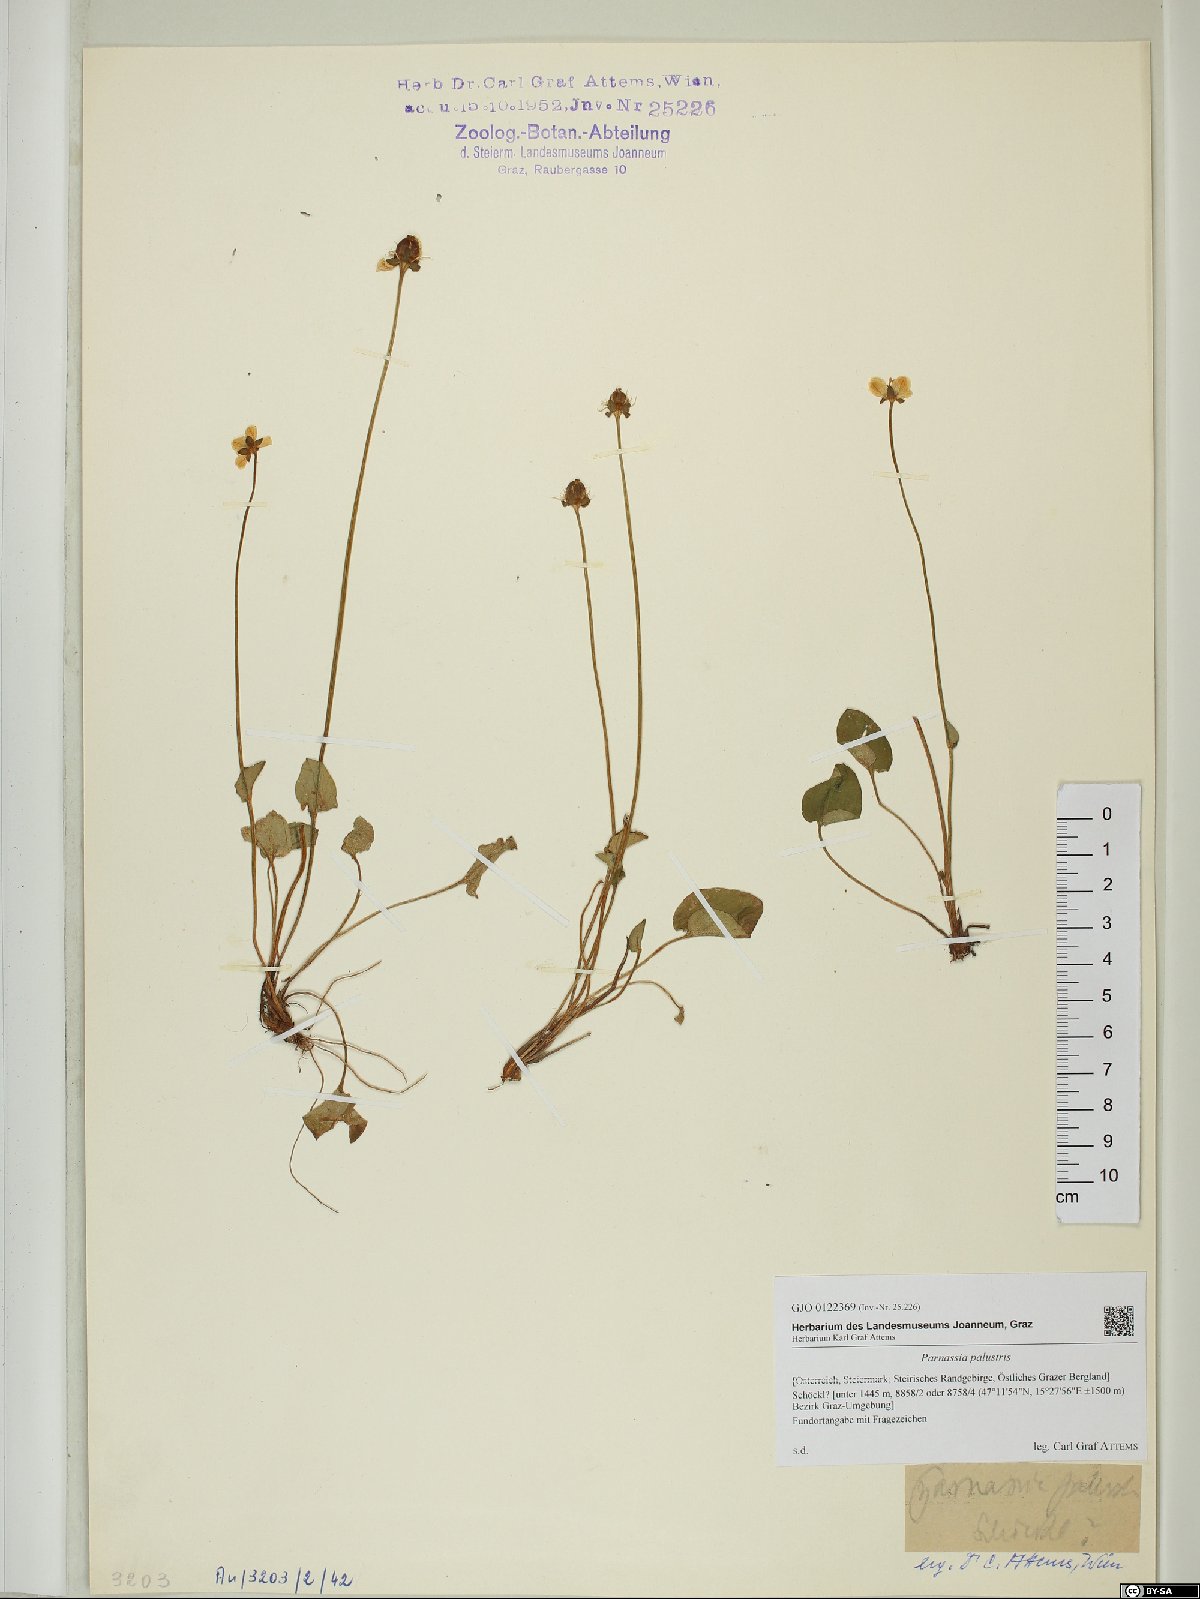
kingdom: Plantae
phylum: Tracheophyta
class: Magnoliopsida
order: Celastrales
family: Parnassiaceae
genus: Parnassia
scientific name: Parnassia palustris
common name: Grass-of-parnassus
